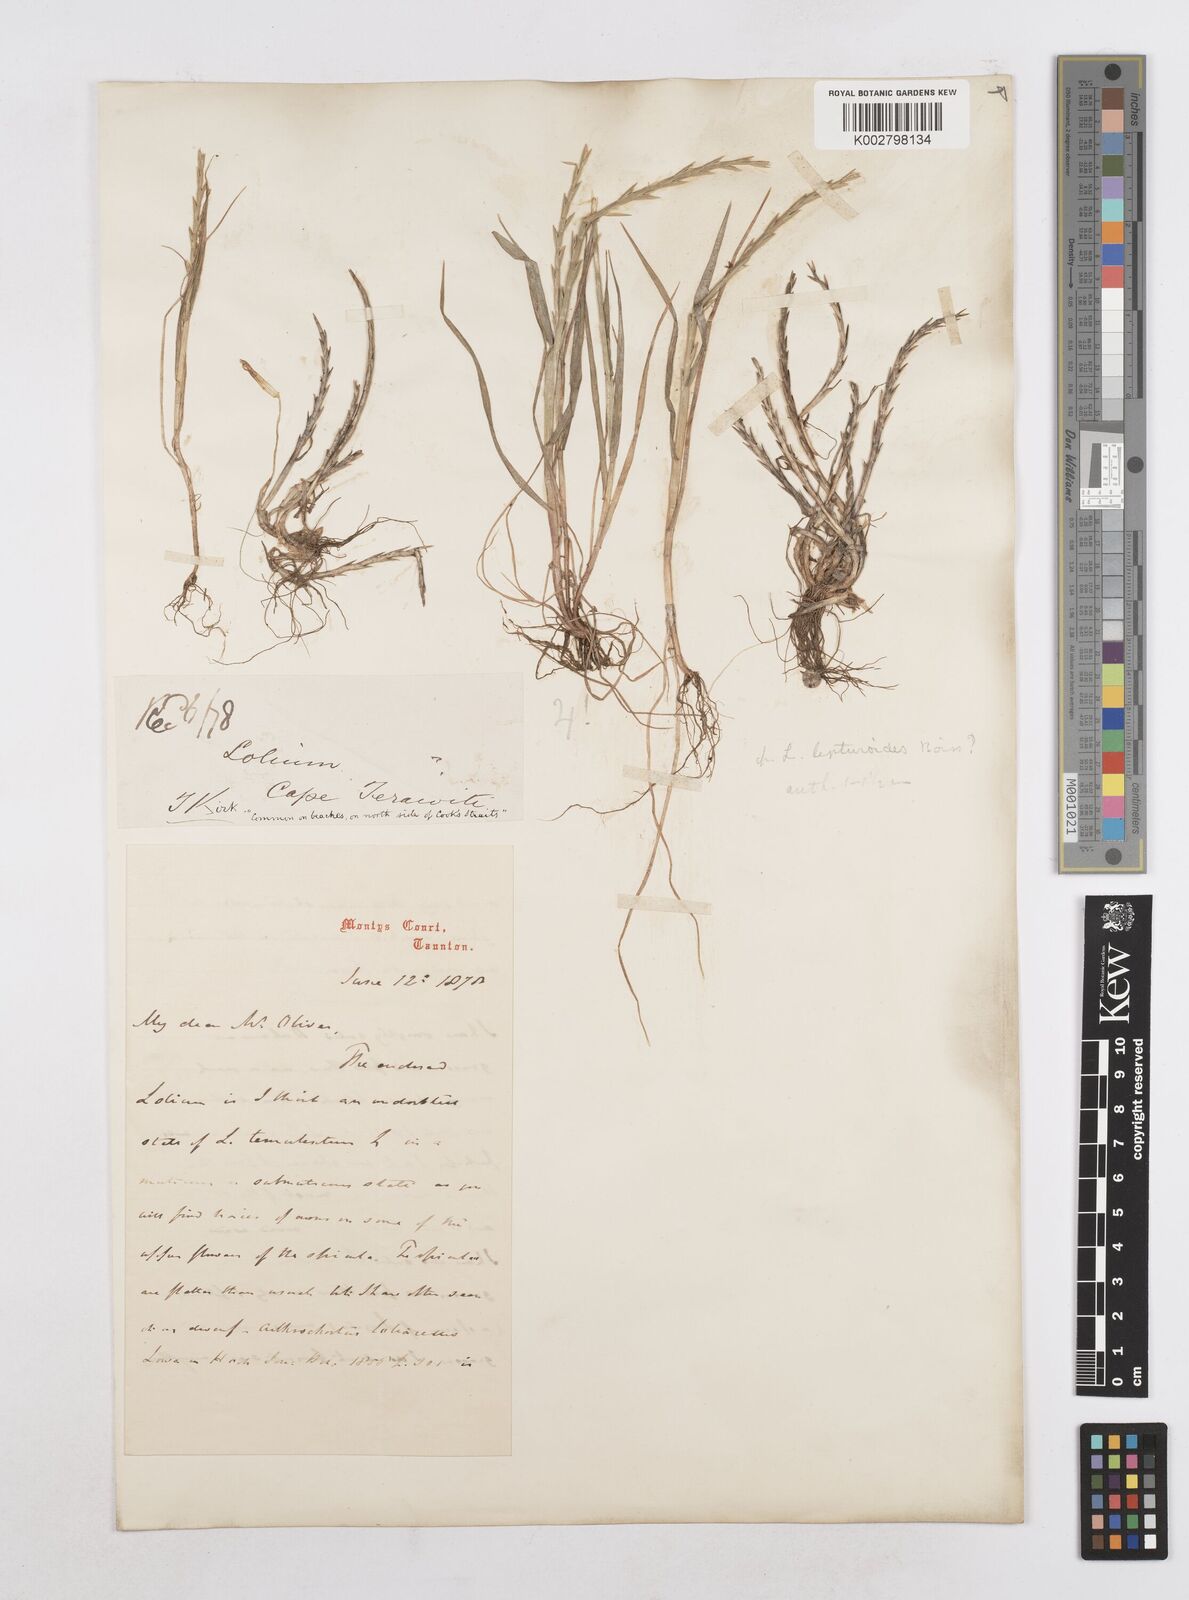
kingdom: Plantae
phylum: Tracheophyta
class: Liliopsida
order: Poales
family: Poaceae
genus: Lolium
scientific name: Lolium rigidum
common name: Wimmera ryegrass
